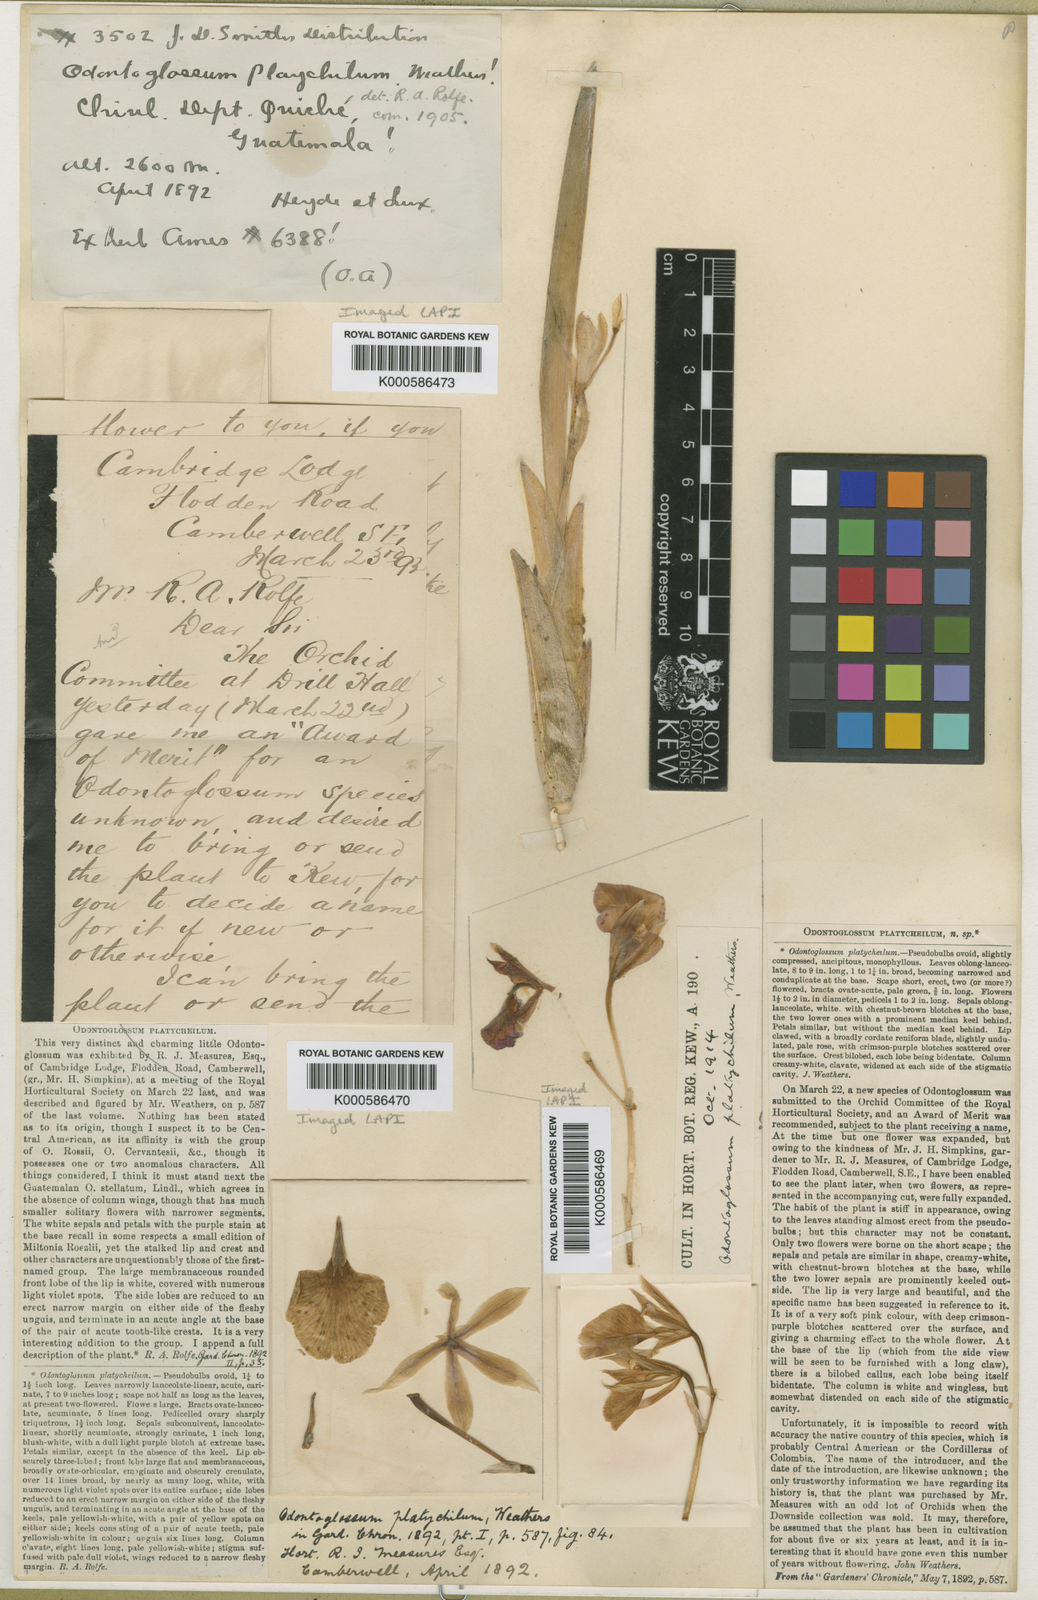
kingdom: Plantae
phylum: Tracheophyta
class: Liliopsida
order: Asparagales
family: Orchidaceae
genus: Rhynchostele
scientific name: Rhynchostele majalis
